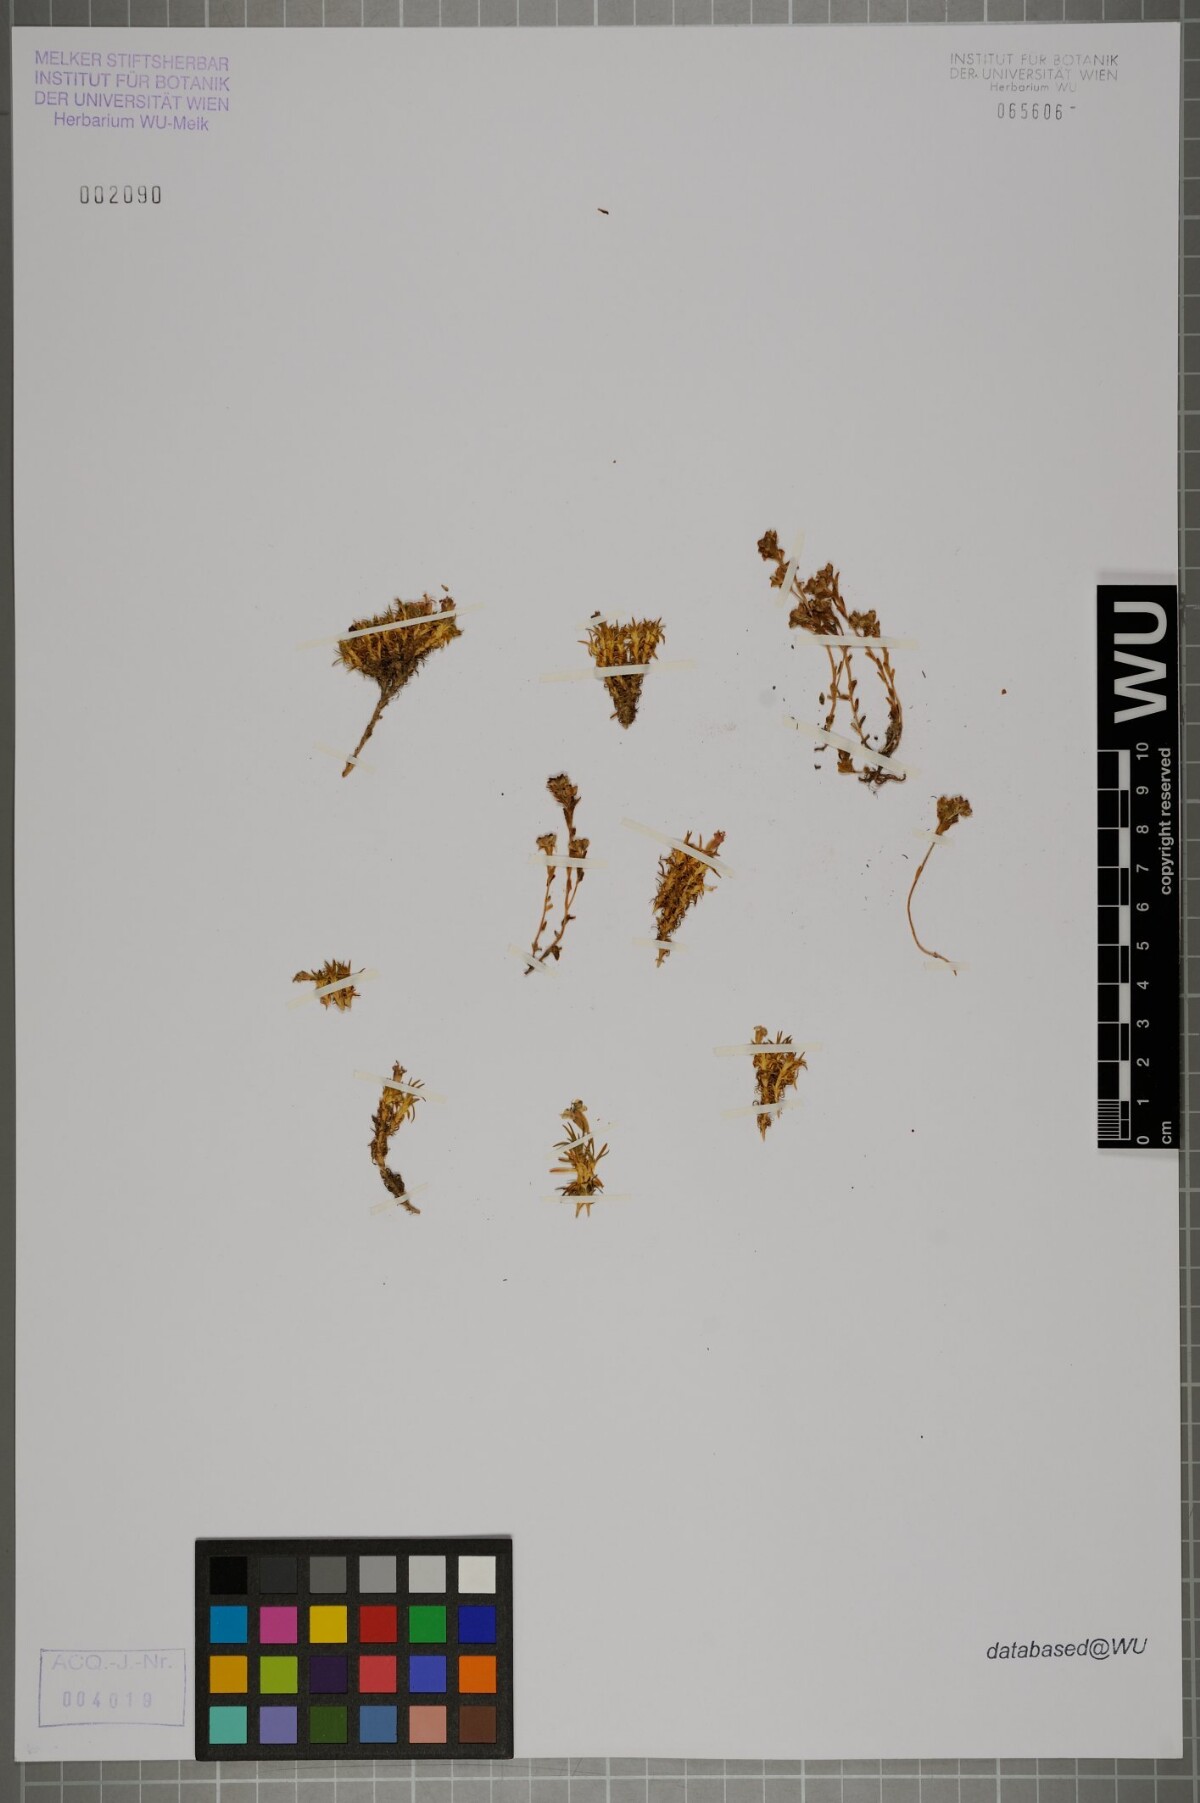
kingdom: Plantae
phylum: Tracheophyta
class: Magnoliopsida
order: Caryophyllales
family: Caryophyllaceae
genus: Silene
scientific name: Silene acaulis
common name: Moss campion
